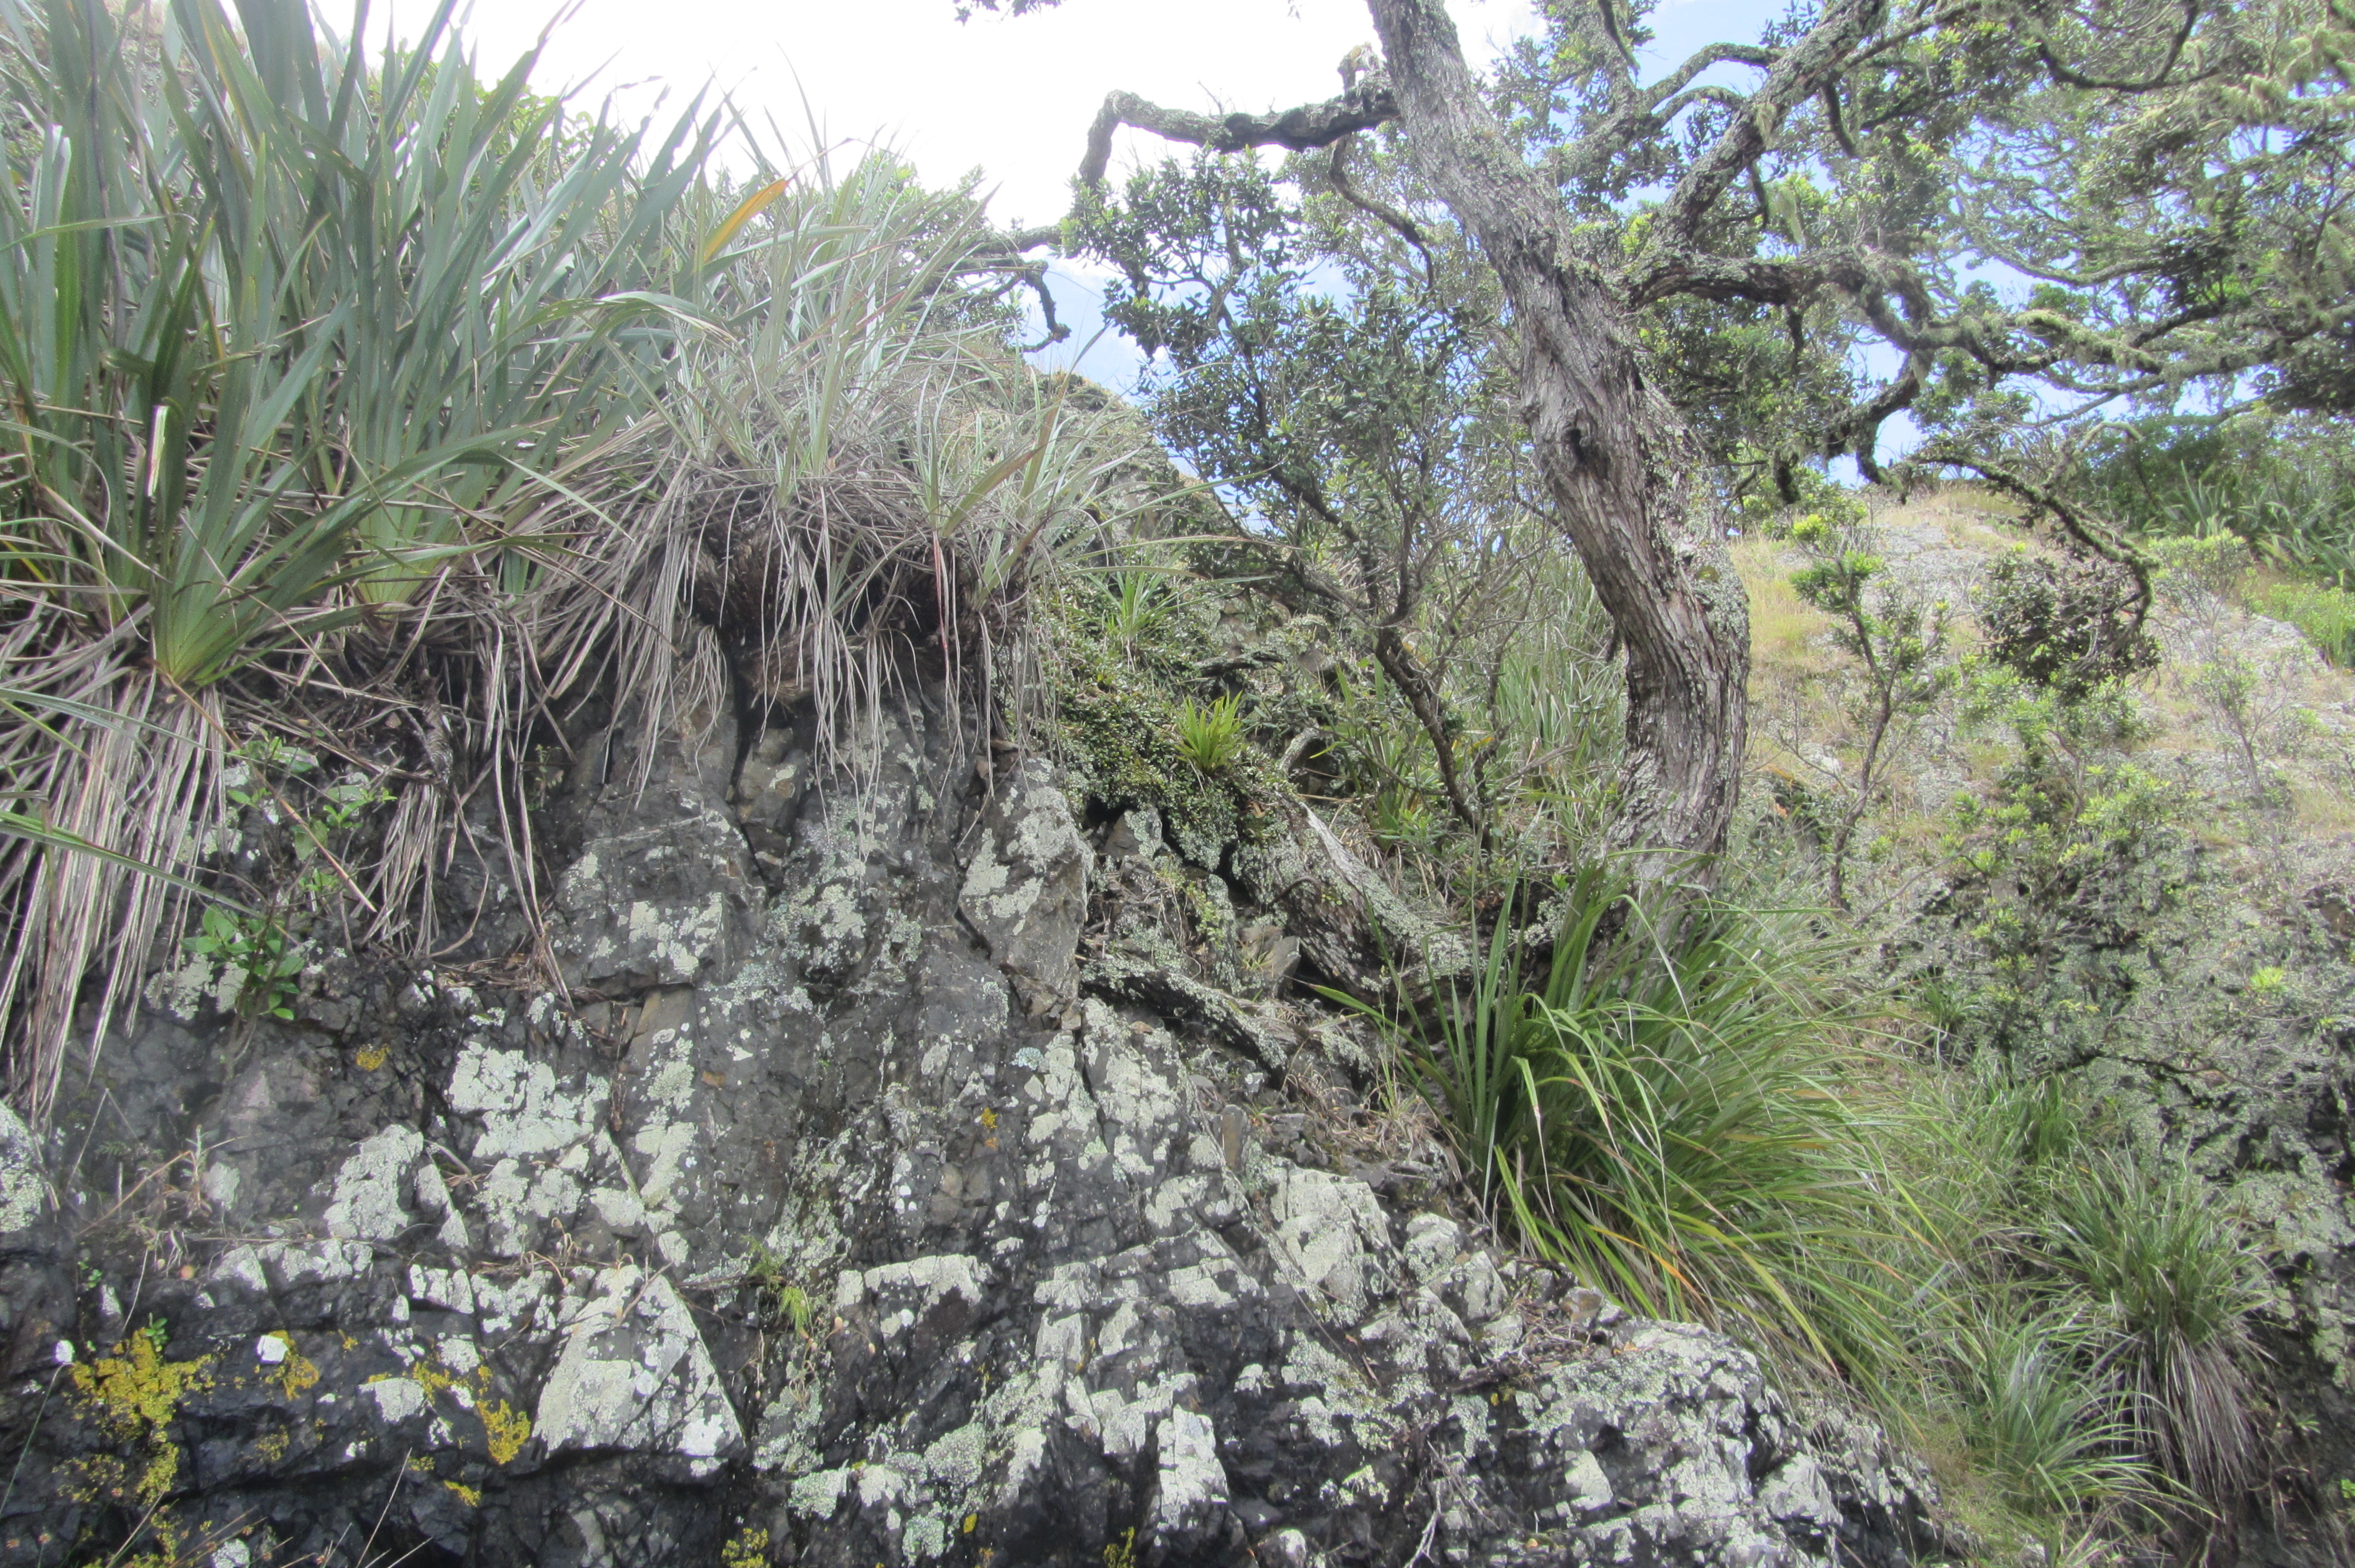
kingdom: Plantae
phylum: Tracheophyta
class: Liliopsida
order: Asparagales
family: Asteliaceae
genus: Astelia
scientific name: Astelia hastata
